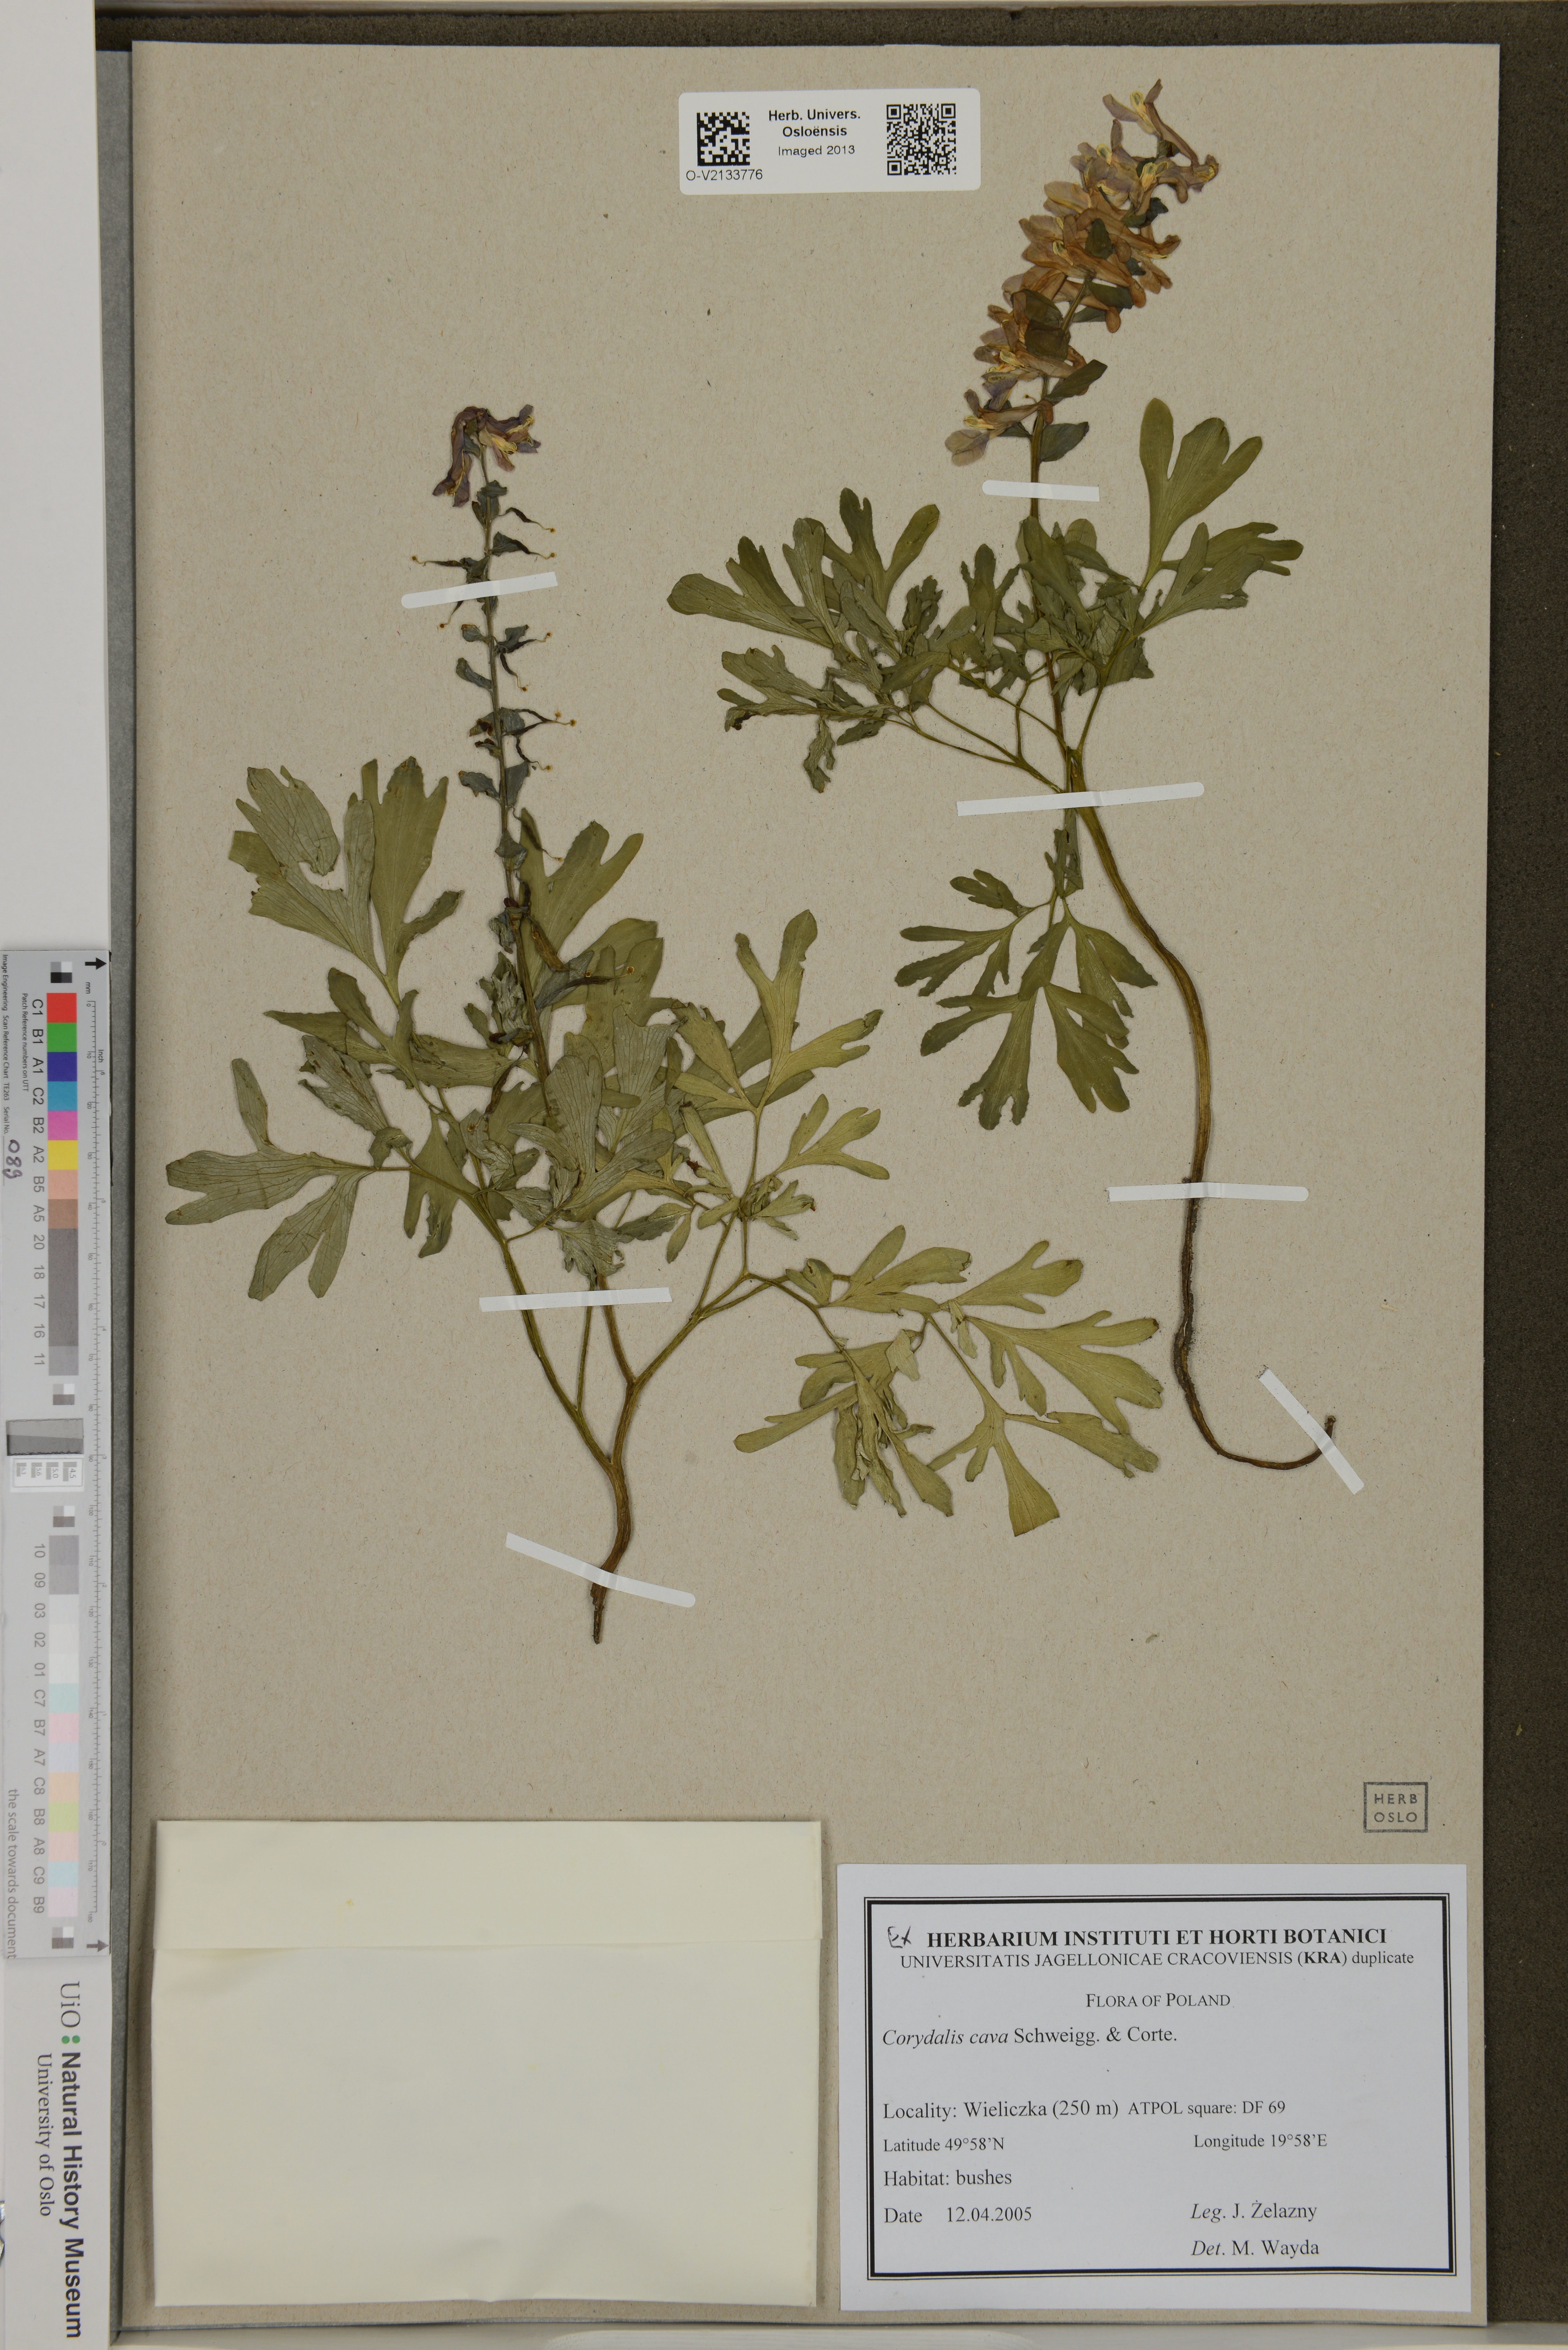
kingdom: Plantae
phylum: Tracheophyta
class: Magnoliopsida
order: Ranunculales
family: Papaveraceae
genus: Corydalis
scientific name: Corydalis cava
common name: Hollowroot
